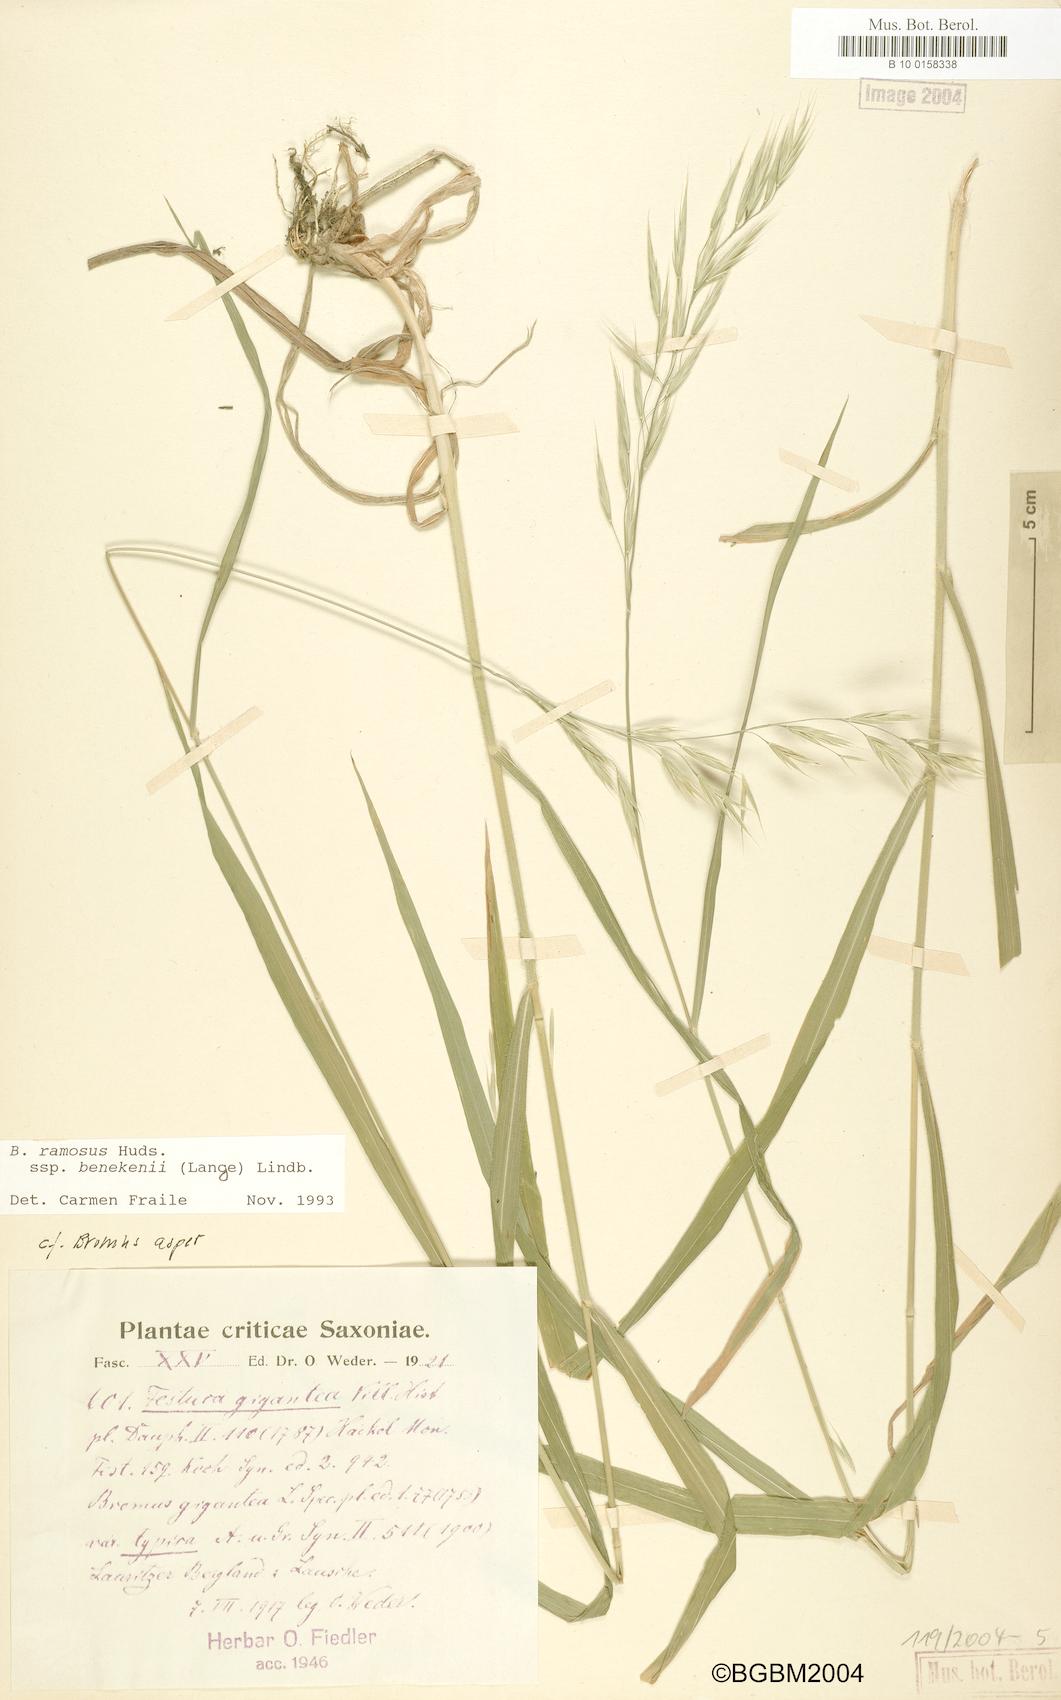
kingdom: Plantae
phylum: Tracheophyta
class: Liliopsida
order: Poales
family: Poaceae
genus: Bromus
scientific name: Bromus benekenii
